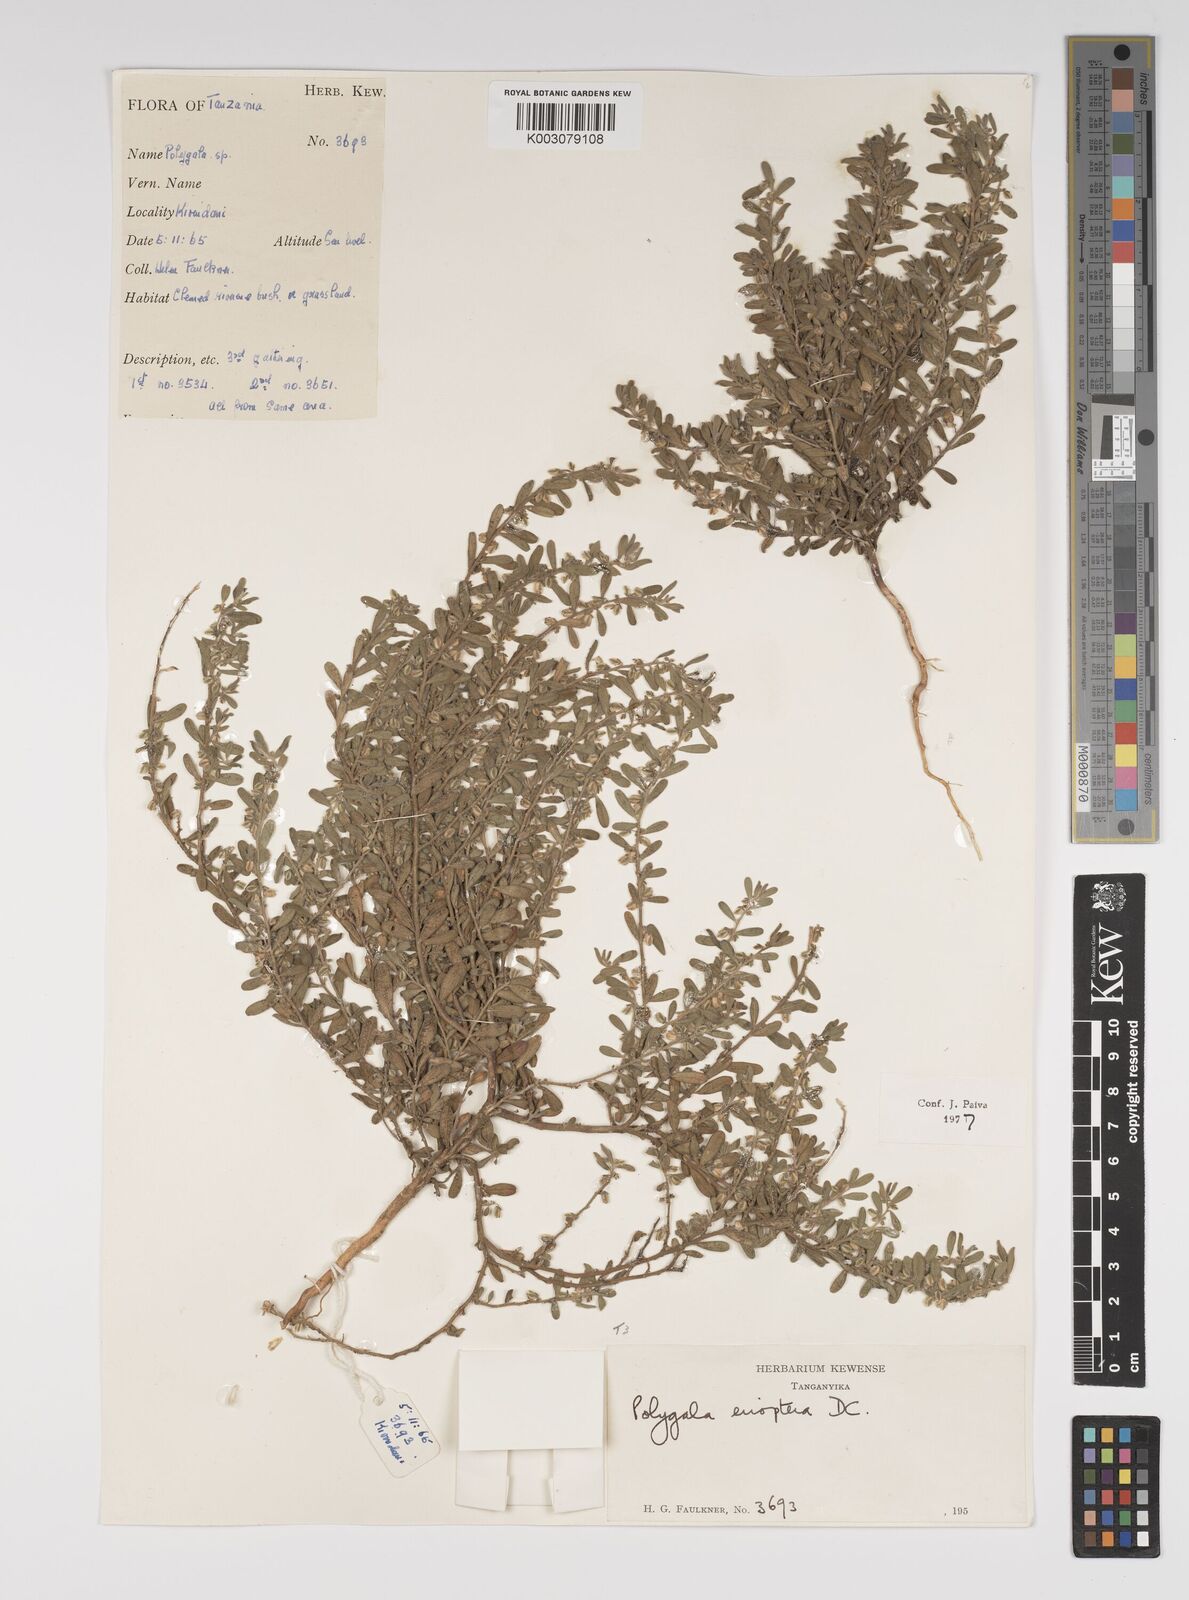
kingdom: Plantae
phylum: Tracheophyta
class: Magnoliopsida
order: Fabales
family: Polygalaceae
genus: Polygala
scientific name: Polygala erioptera
